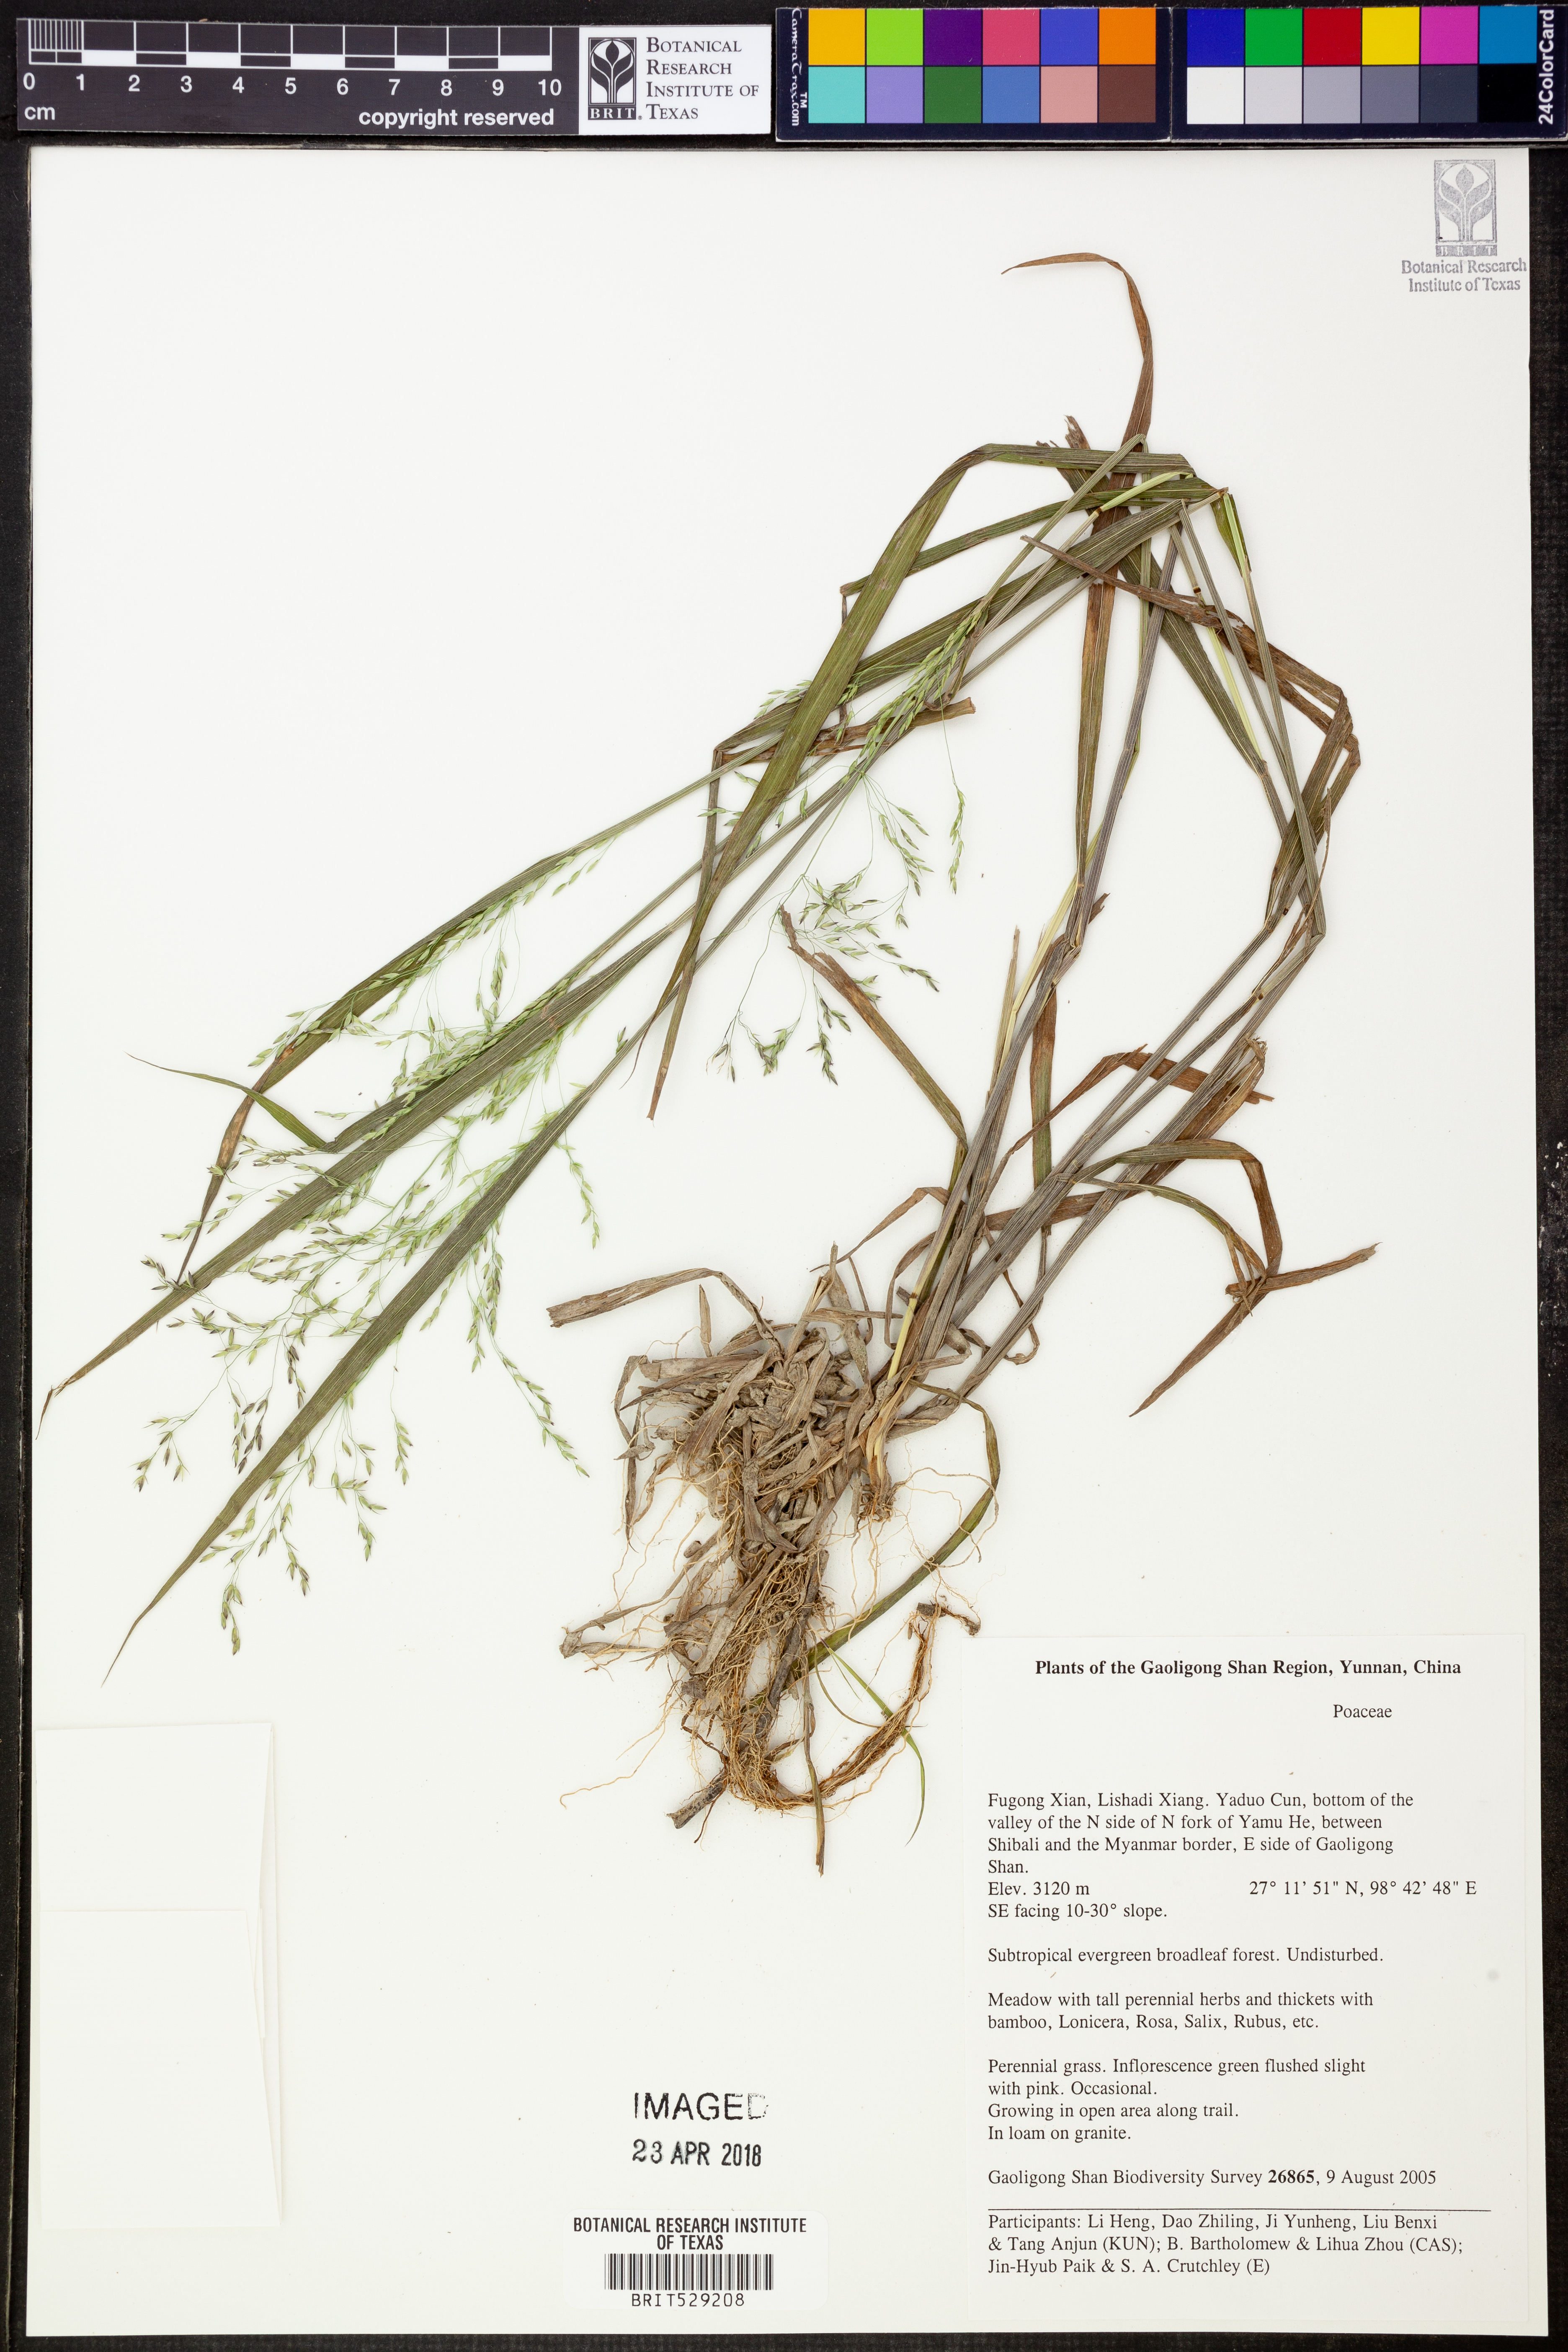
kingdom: Plantae
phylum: Tracheophyta
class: Liliopsida
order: Poales
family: Poaceae
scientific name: Poaceae
